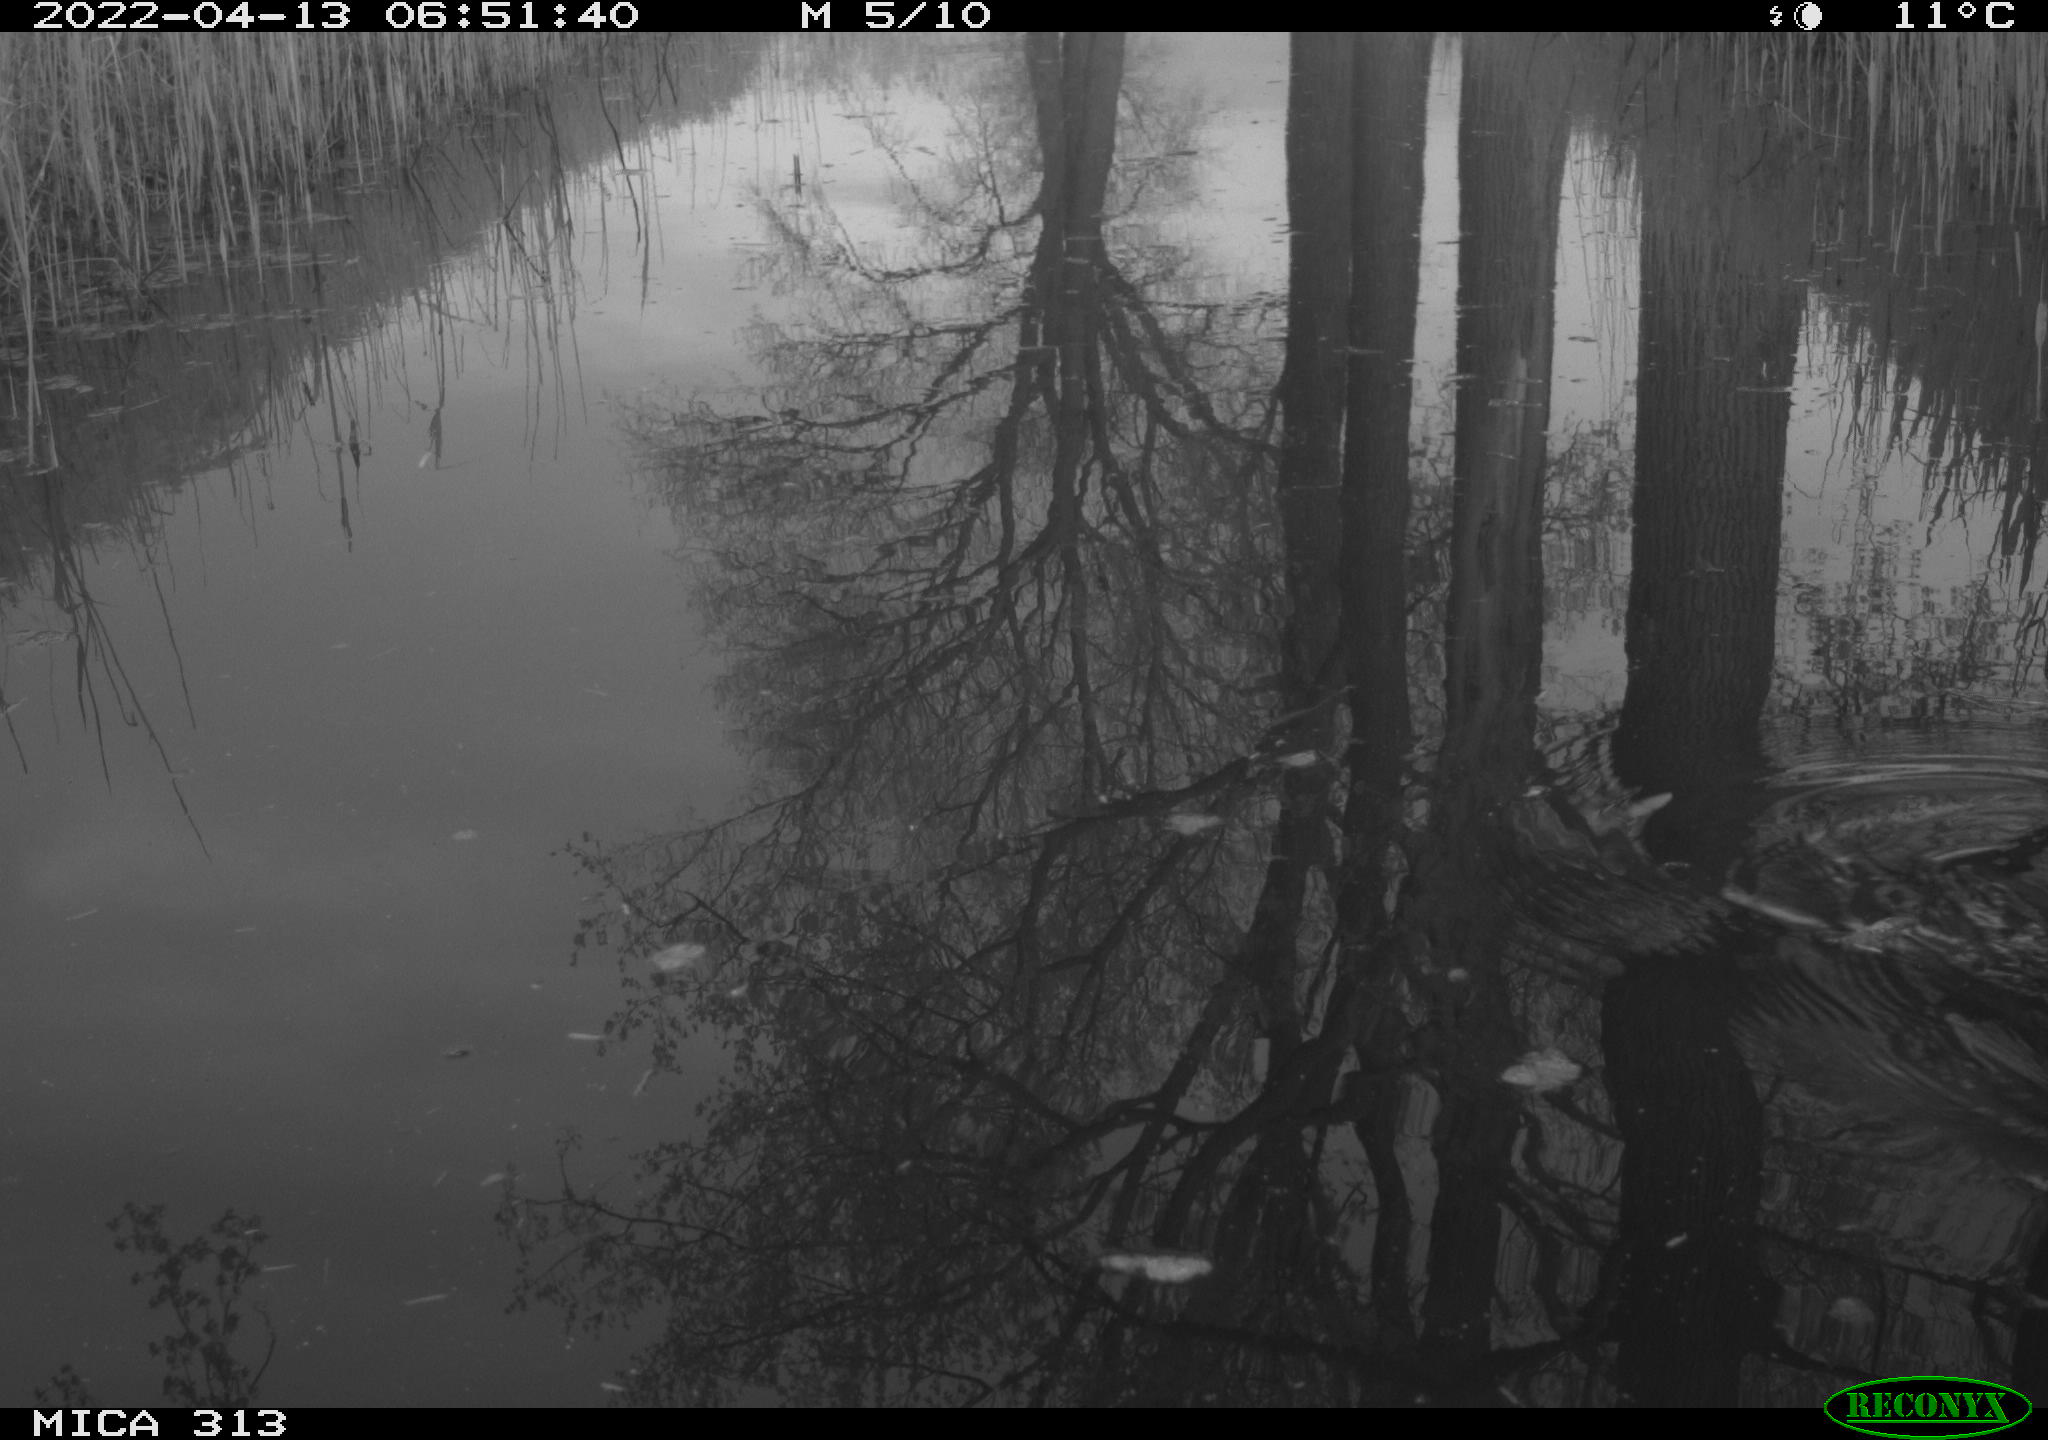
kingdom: Animalia
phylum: Chordata
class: Aves
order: Gruiformes
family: Rallidae
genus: Gallinula
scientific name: Gallinula chloropus
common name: Common moorhen
